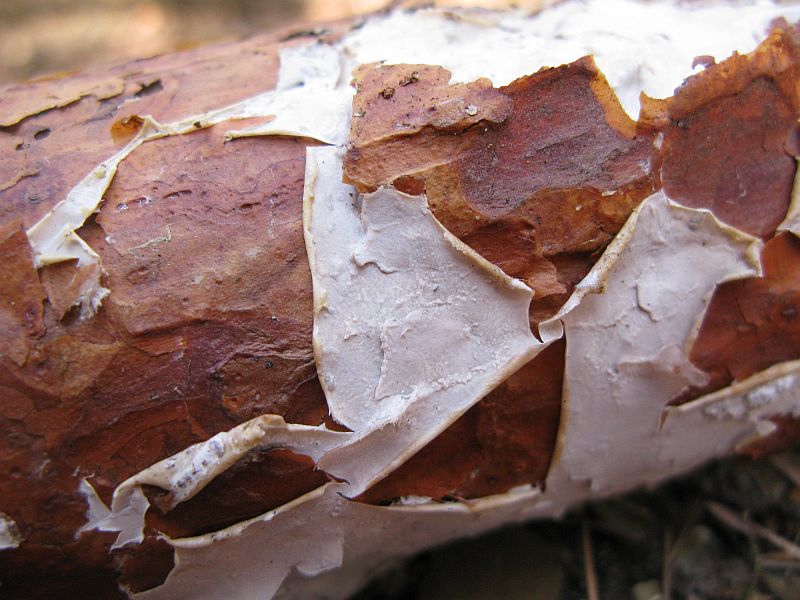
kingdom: Fungi
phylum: Basidiomycota
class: Agaricomycetes
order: Polyporales
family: Phanerochaetaceae
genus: Phlebiopsis
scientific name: Phlebiopsis gigantea
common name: kæmpebarksvamp
